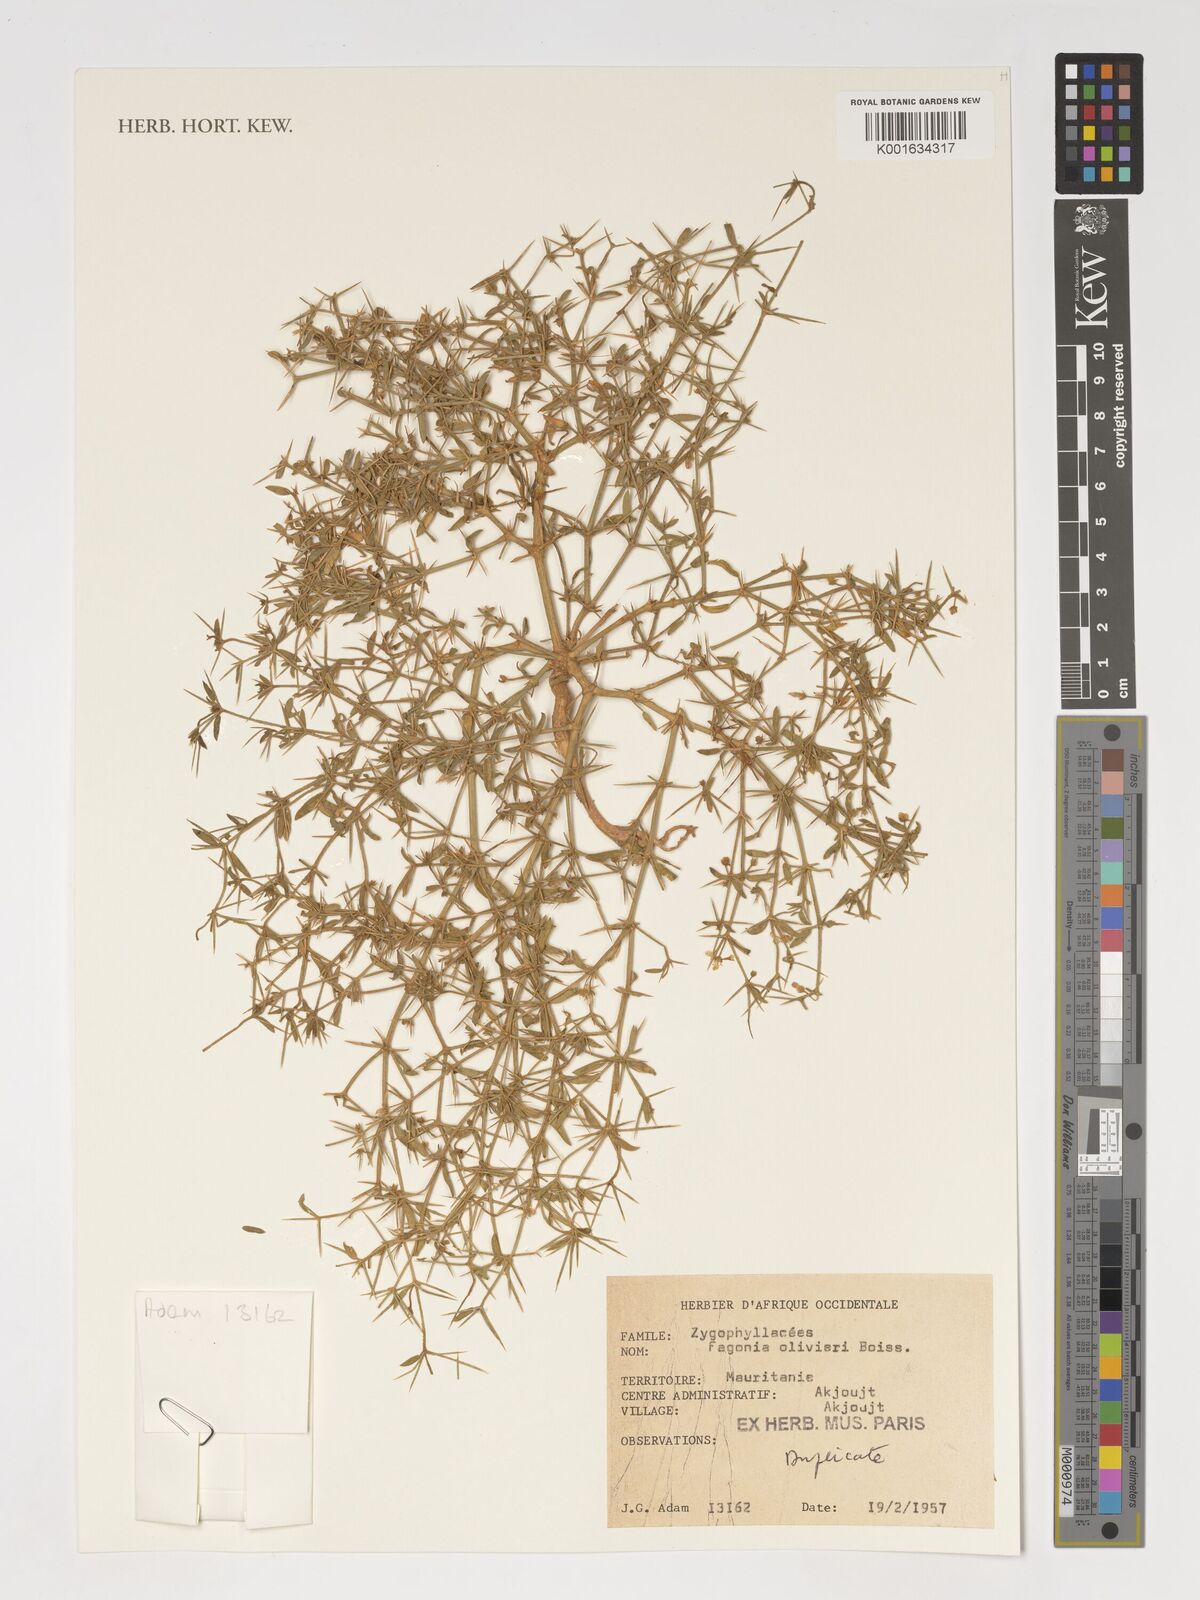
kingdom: Plantae
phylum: Tracheophyta
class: Magnoliopsida
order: Zygophyllales
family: Zygophyllaceae
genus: Fagonia
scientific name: Fagonia olivieri
